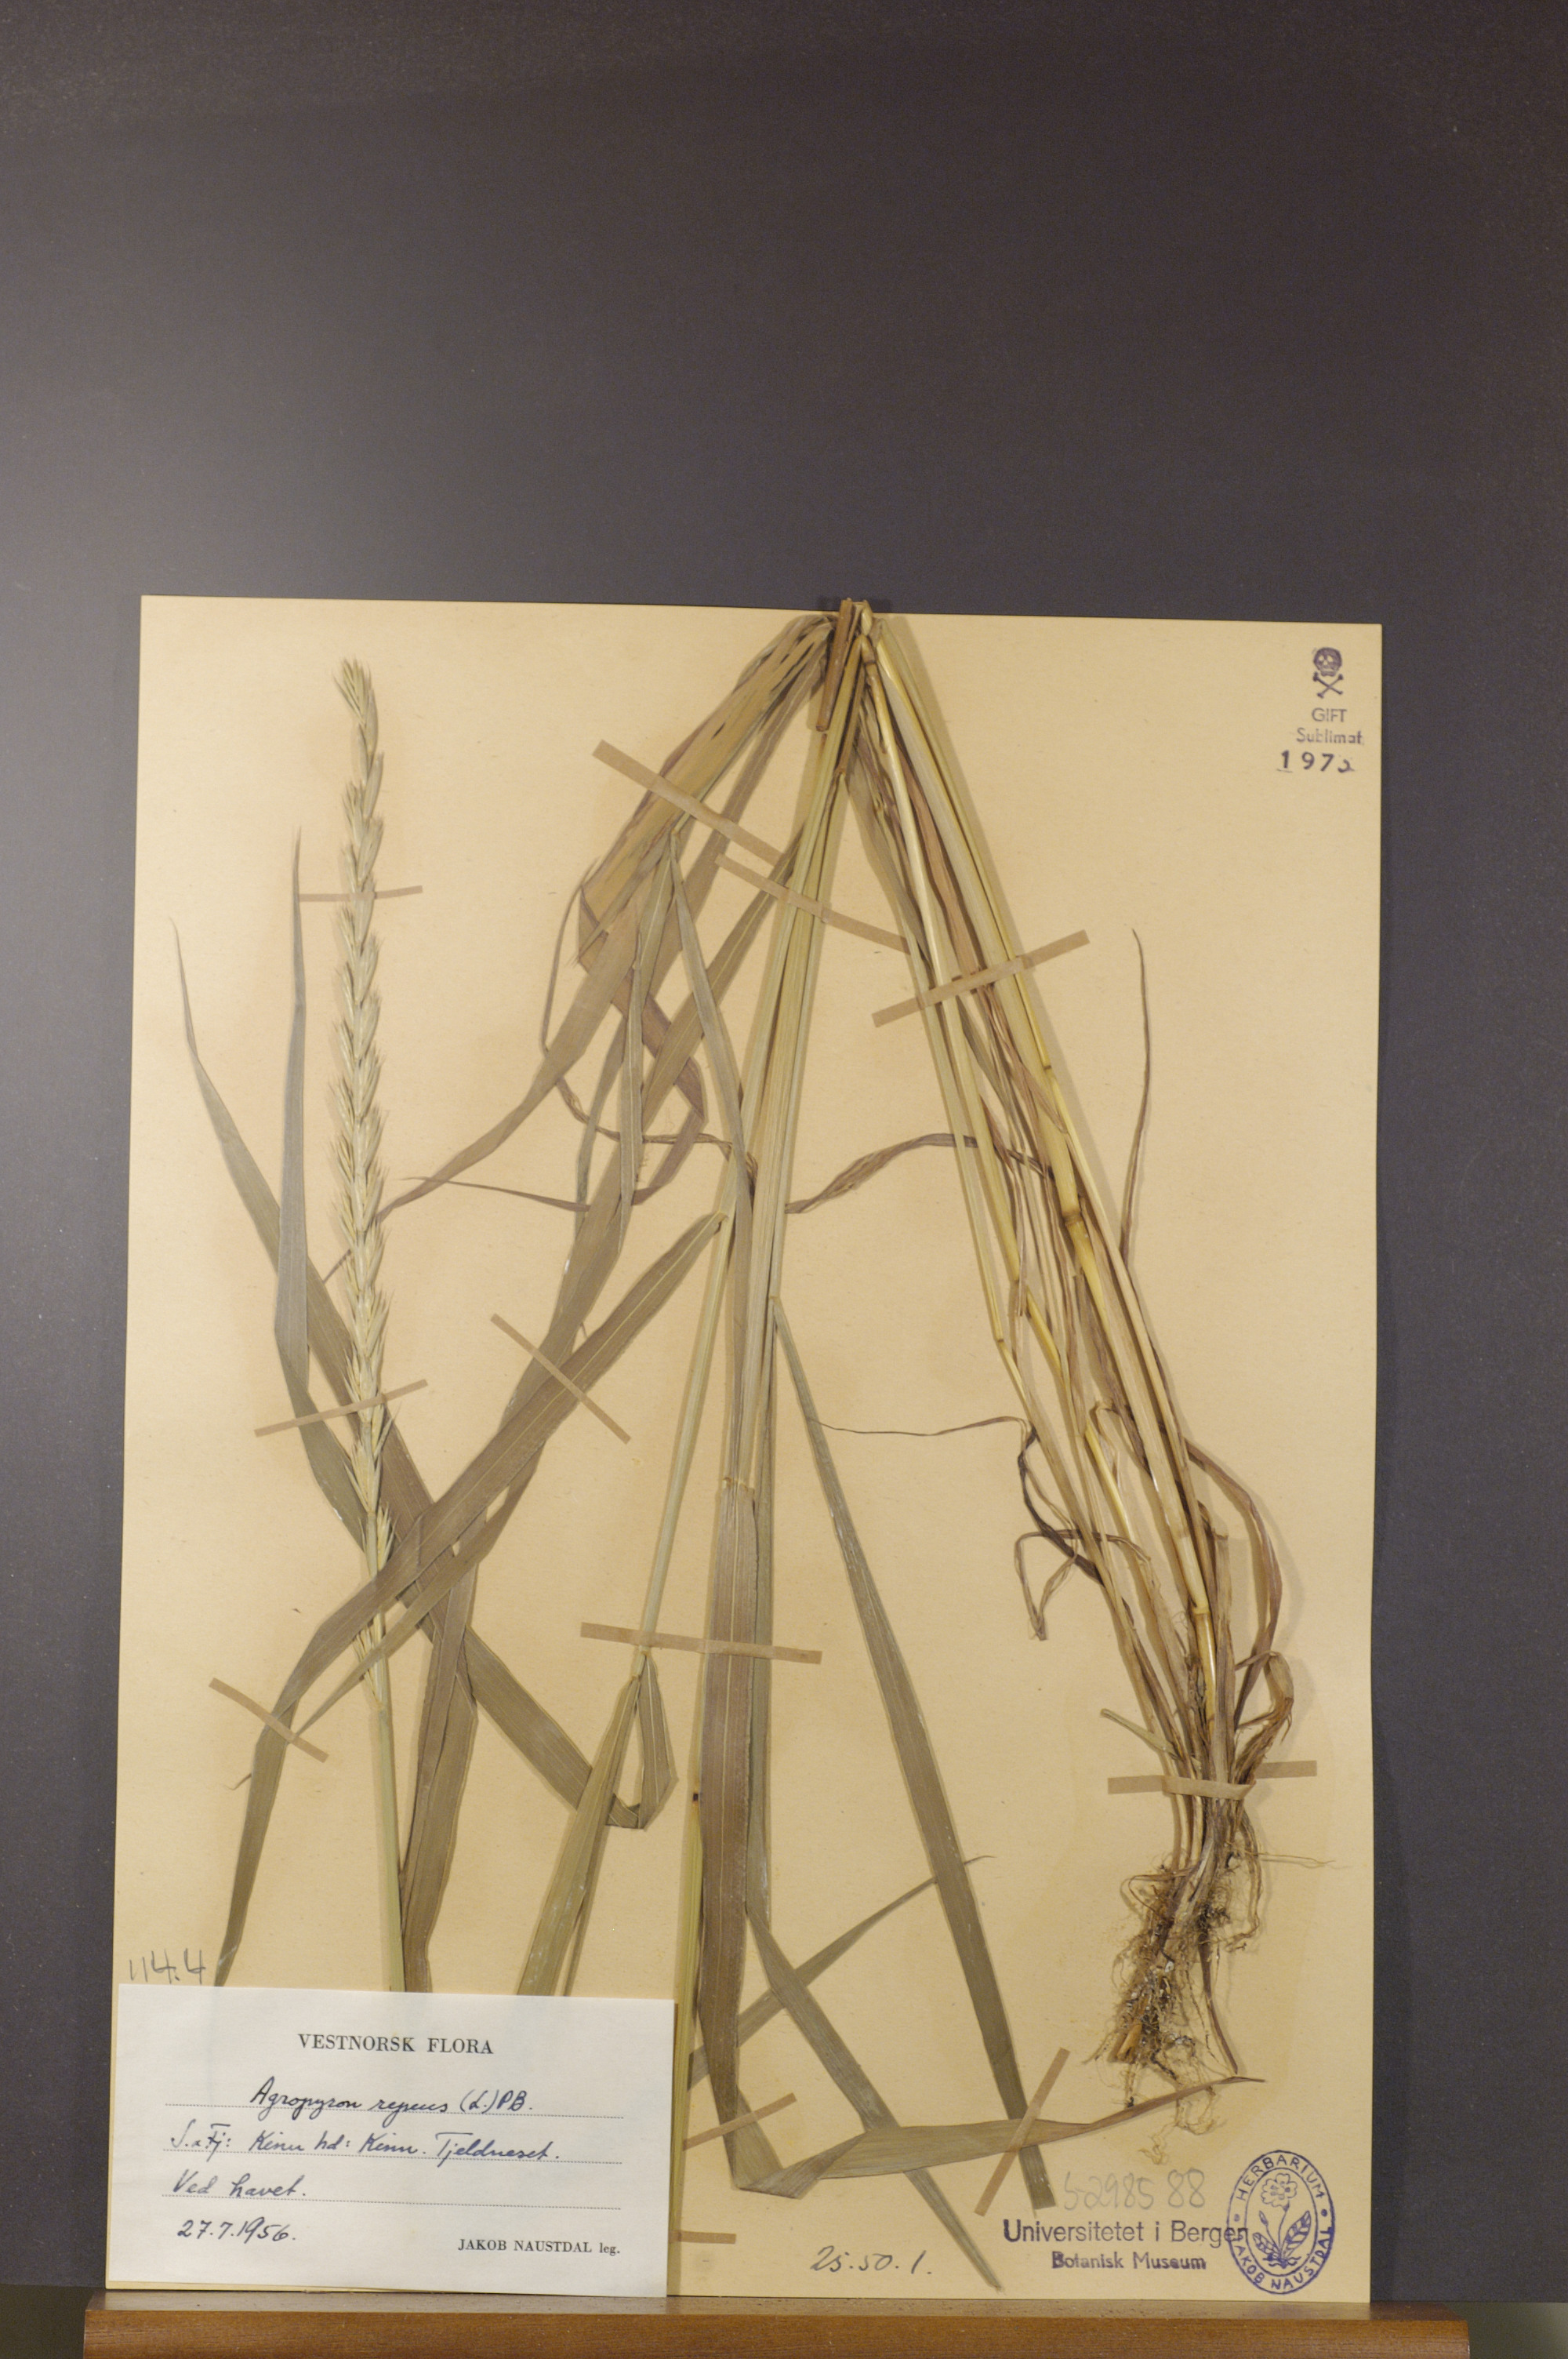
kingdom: Plantae
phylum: Tracheophyta
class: Liliopsida
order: Poales
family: Poaceae
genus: Elymus
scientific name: Elymus repens
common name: Quackgrass
